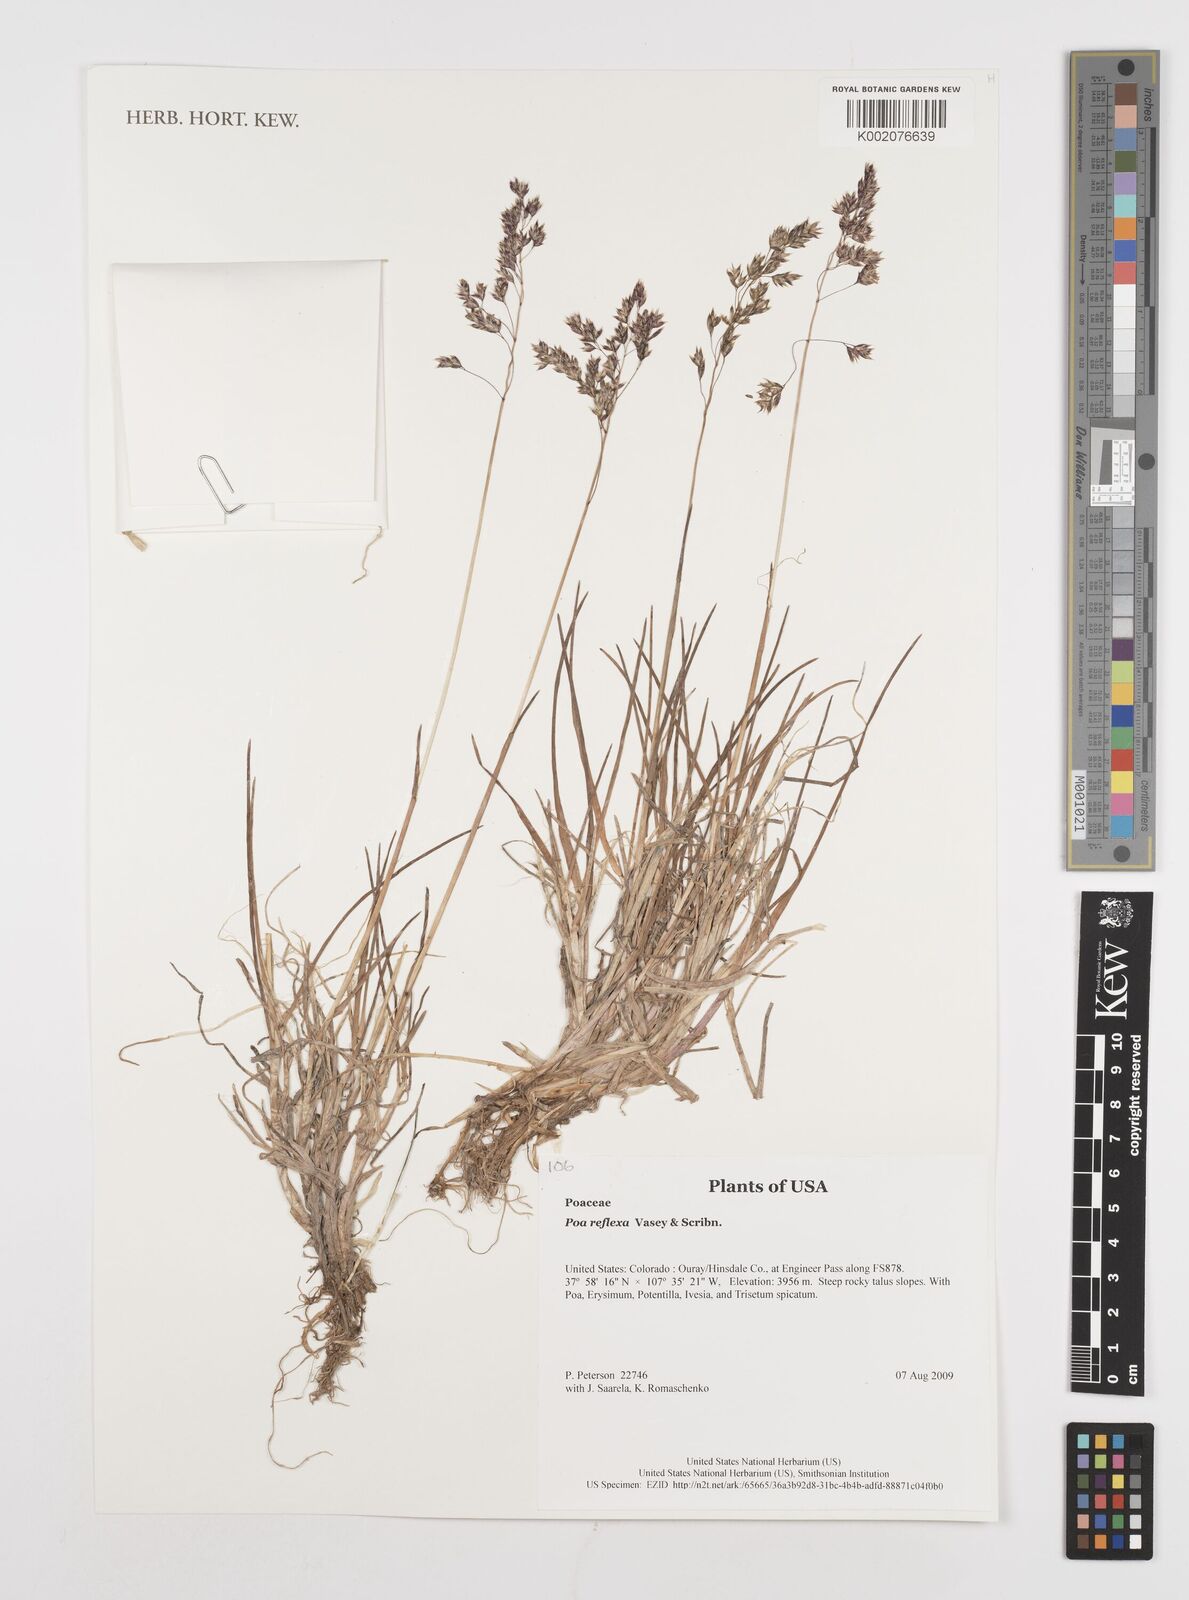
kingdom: Plantae
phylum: Tracheophyta
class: Liliopsida
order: Poales
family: Poaceae
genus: Poa
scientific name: Poa reflexa
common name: Nodding bluegrass
